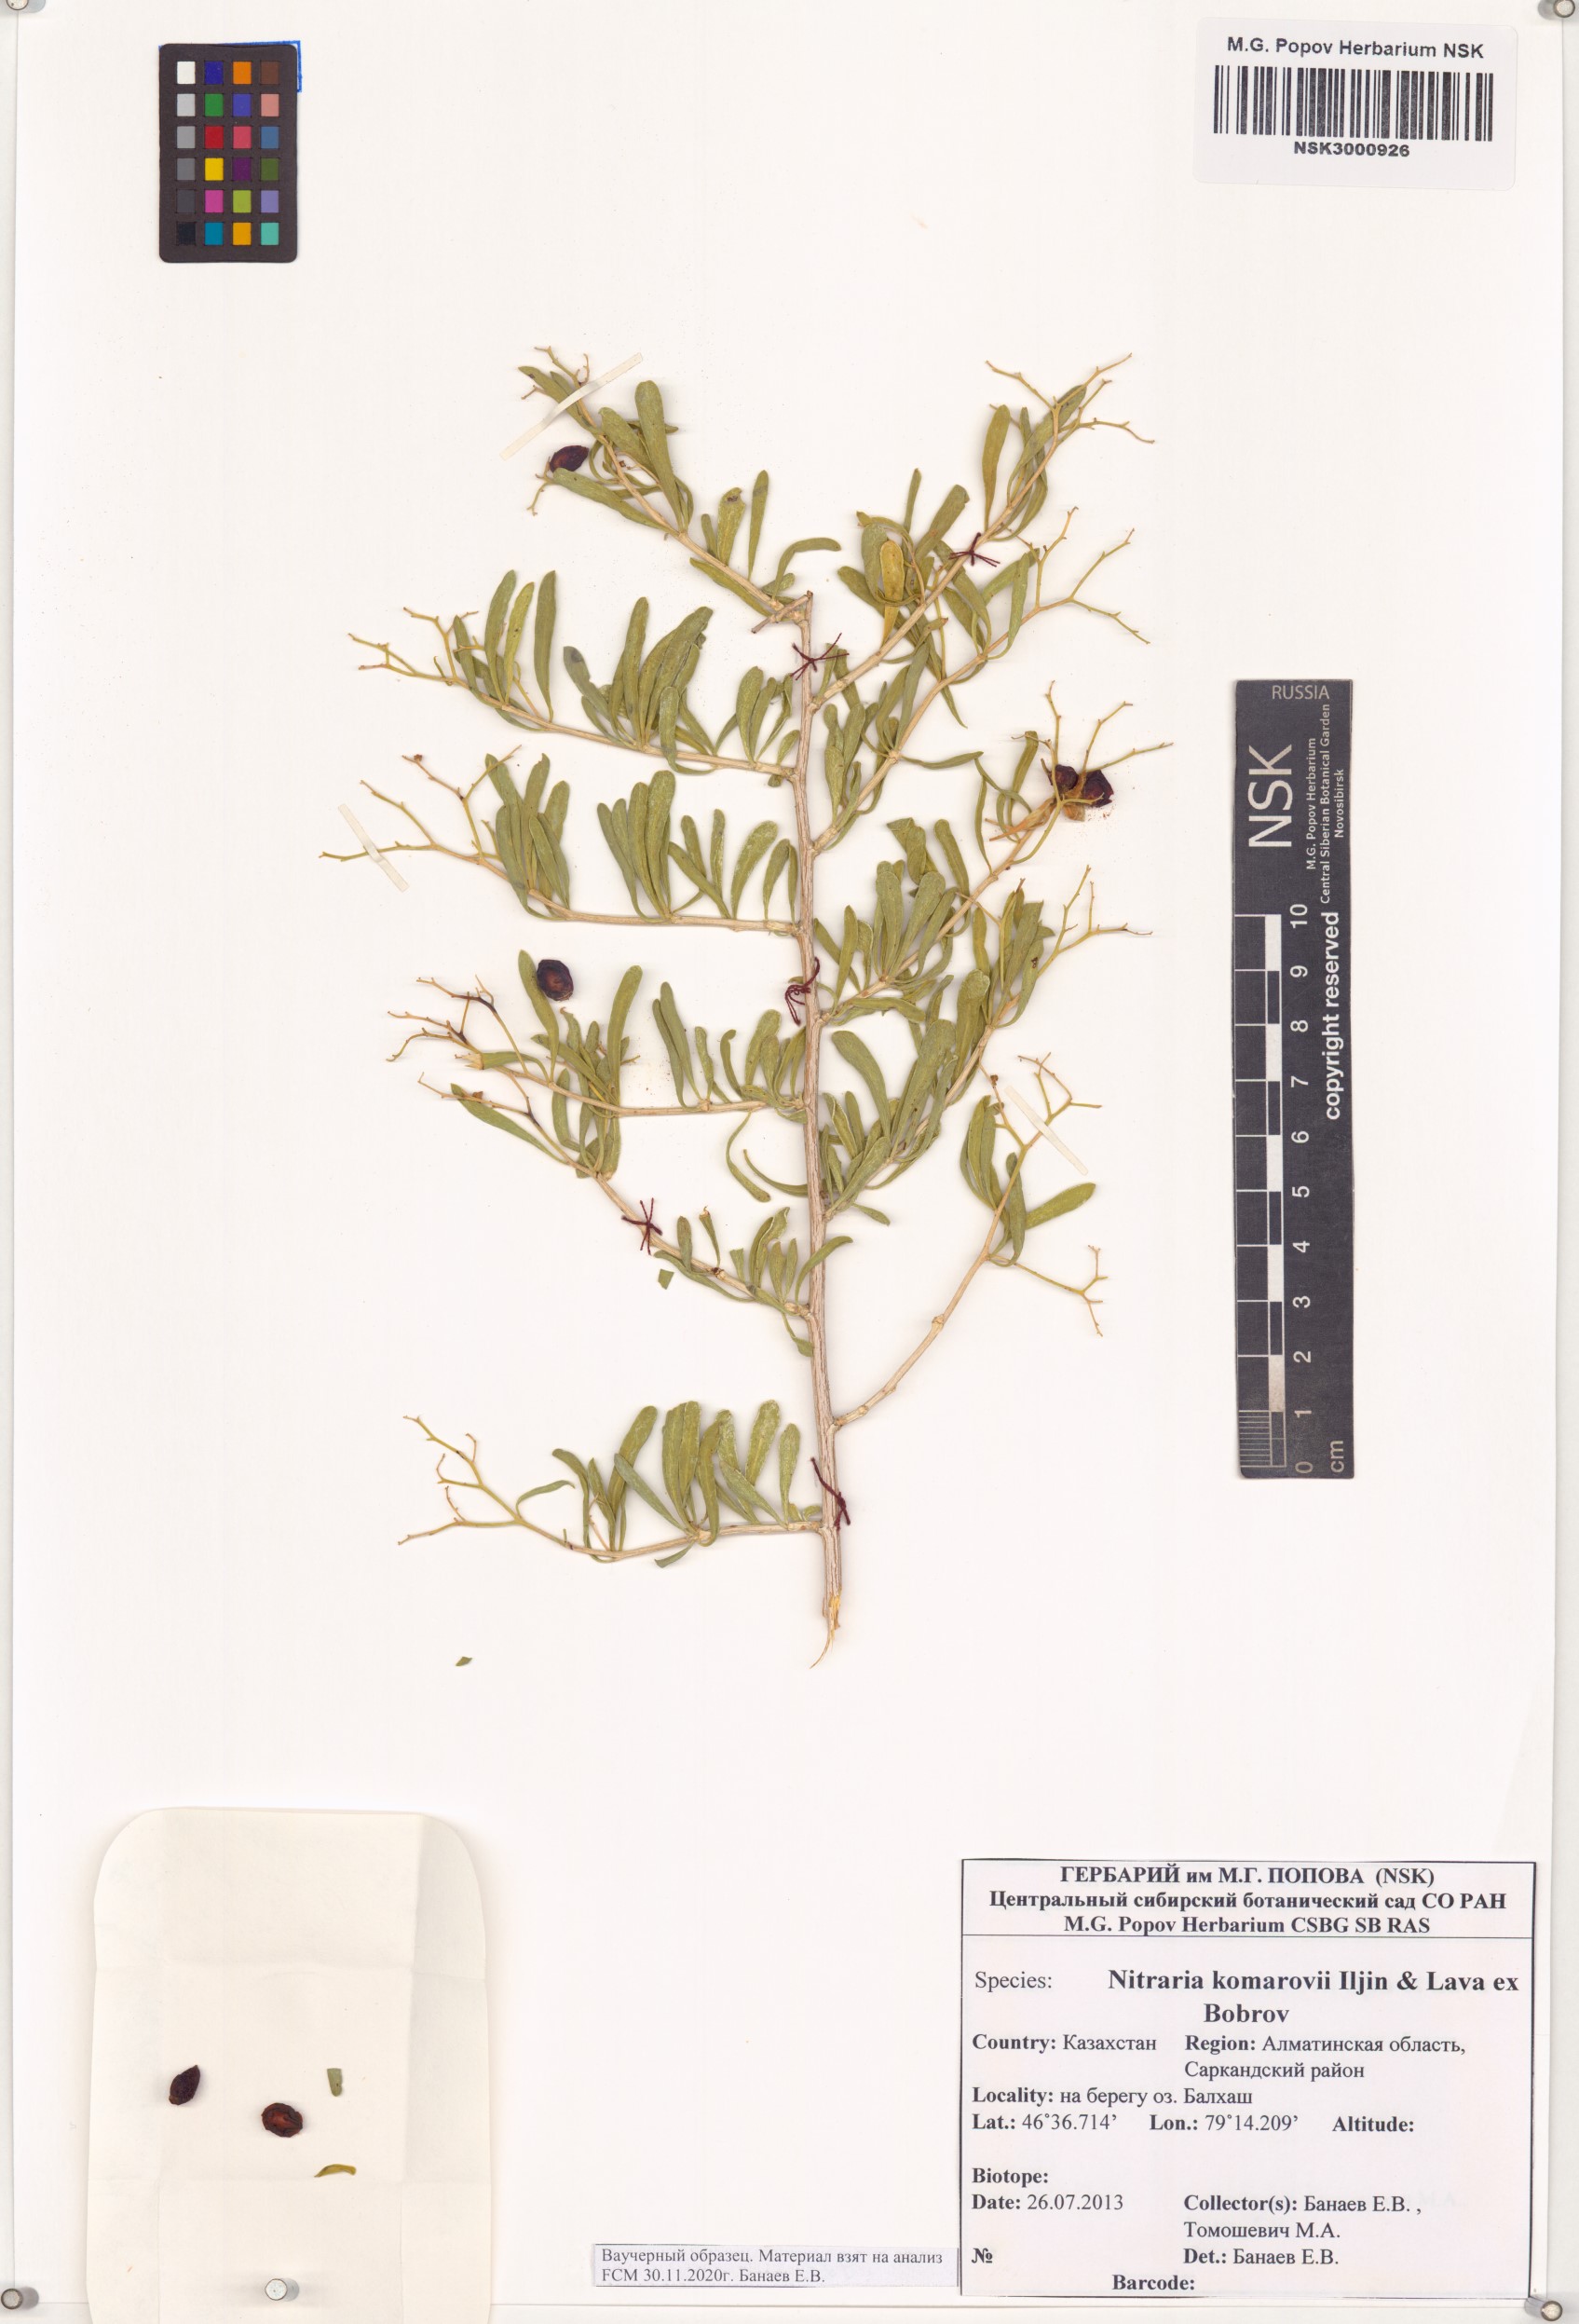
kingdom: Plantae
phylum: Tracheophyta
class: Magnoliopsida
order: Sapindales
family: Nitrariaceae
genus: Nitraria
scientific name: Nitraria komarovii
